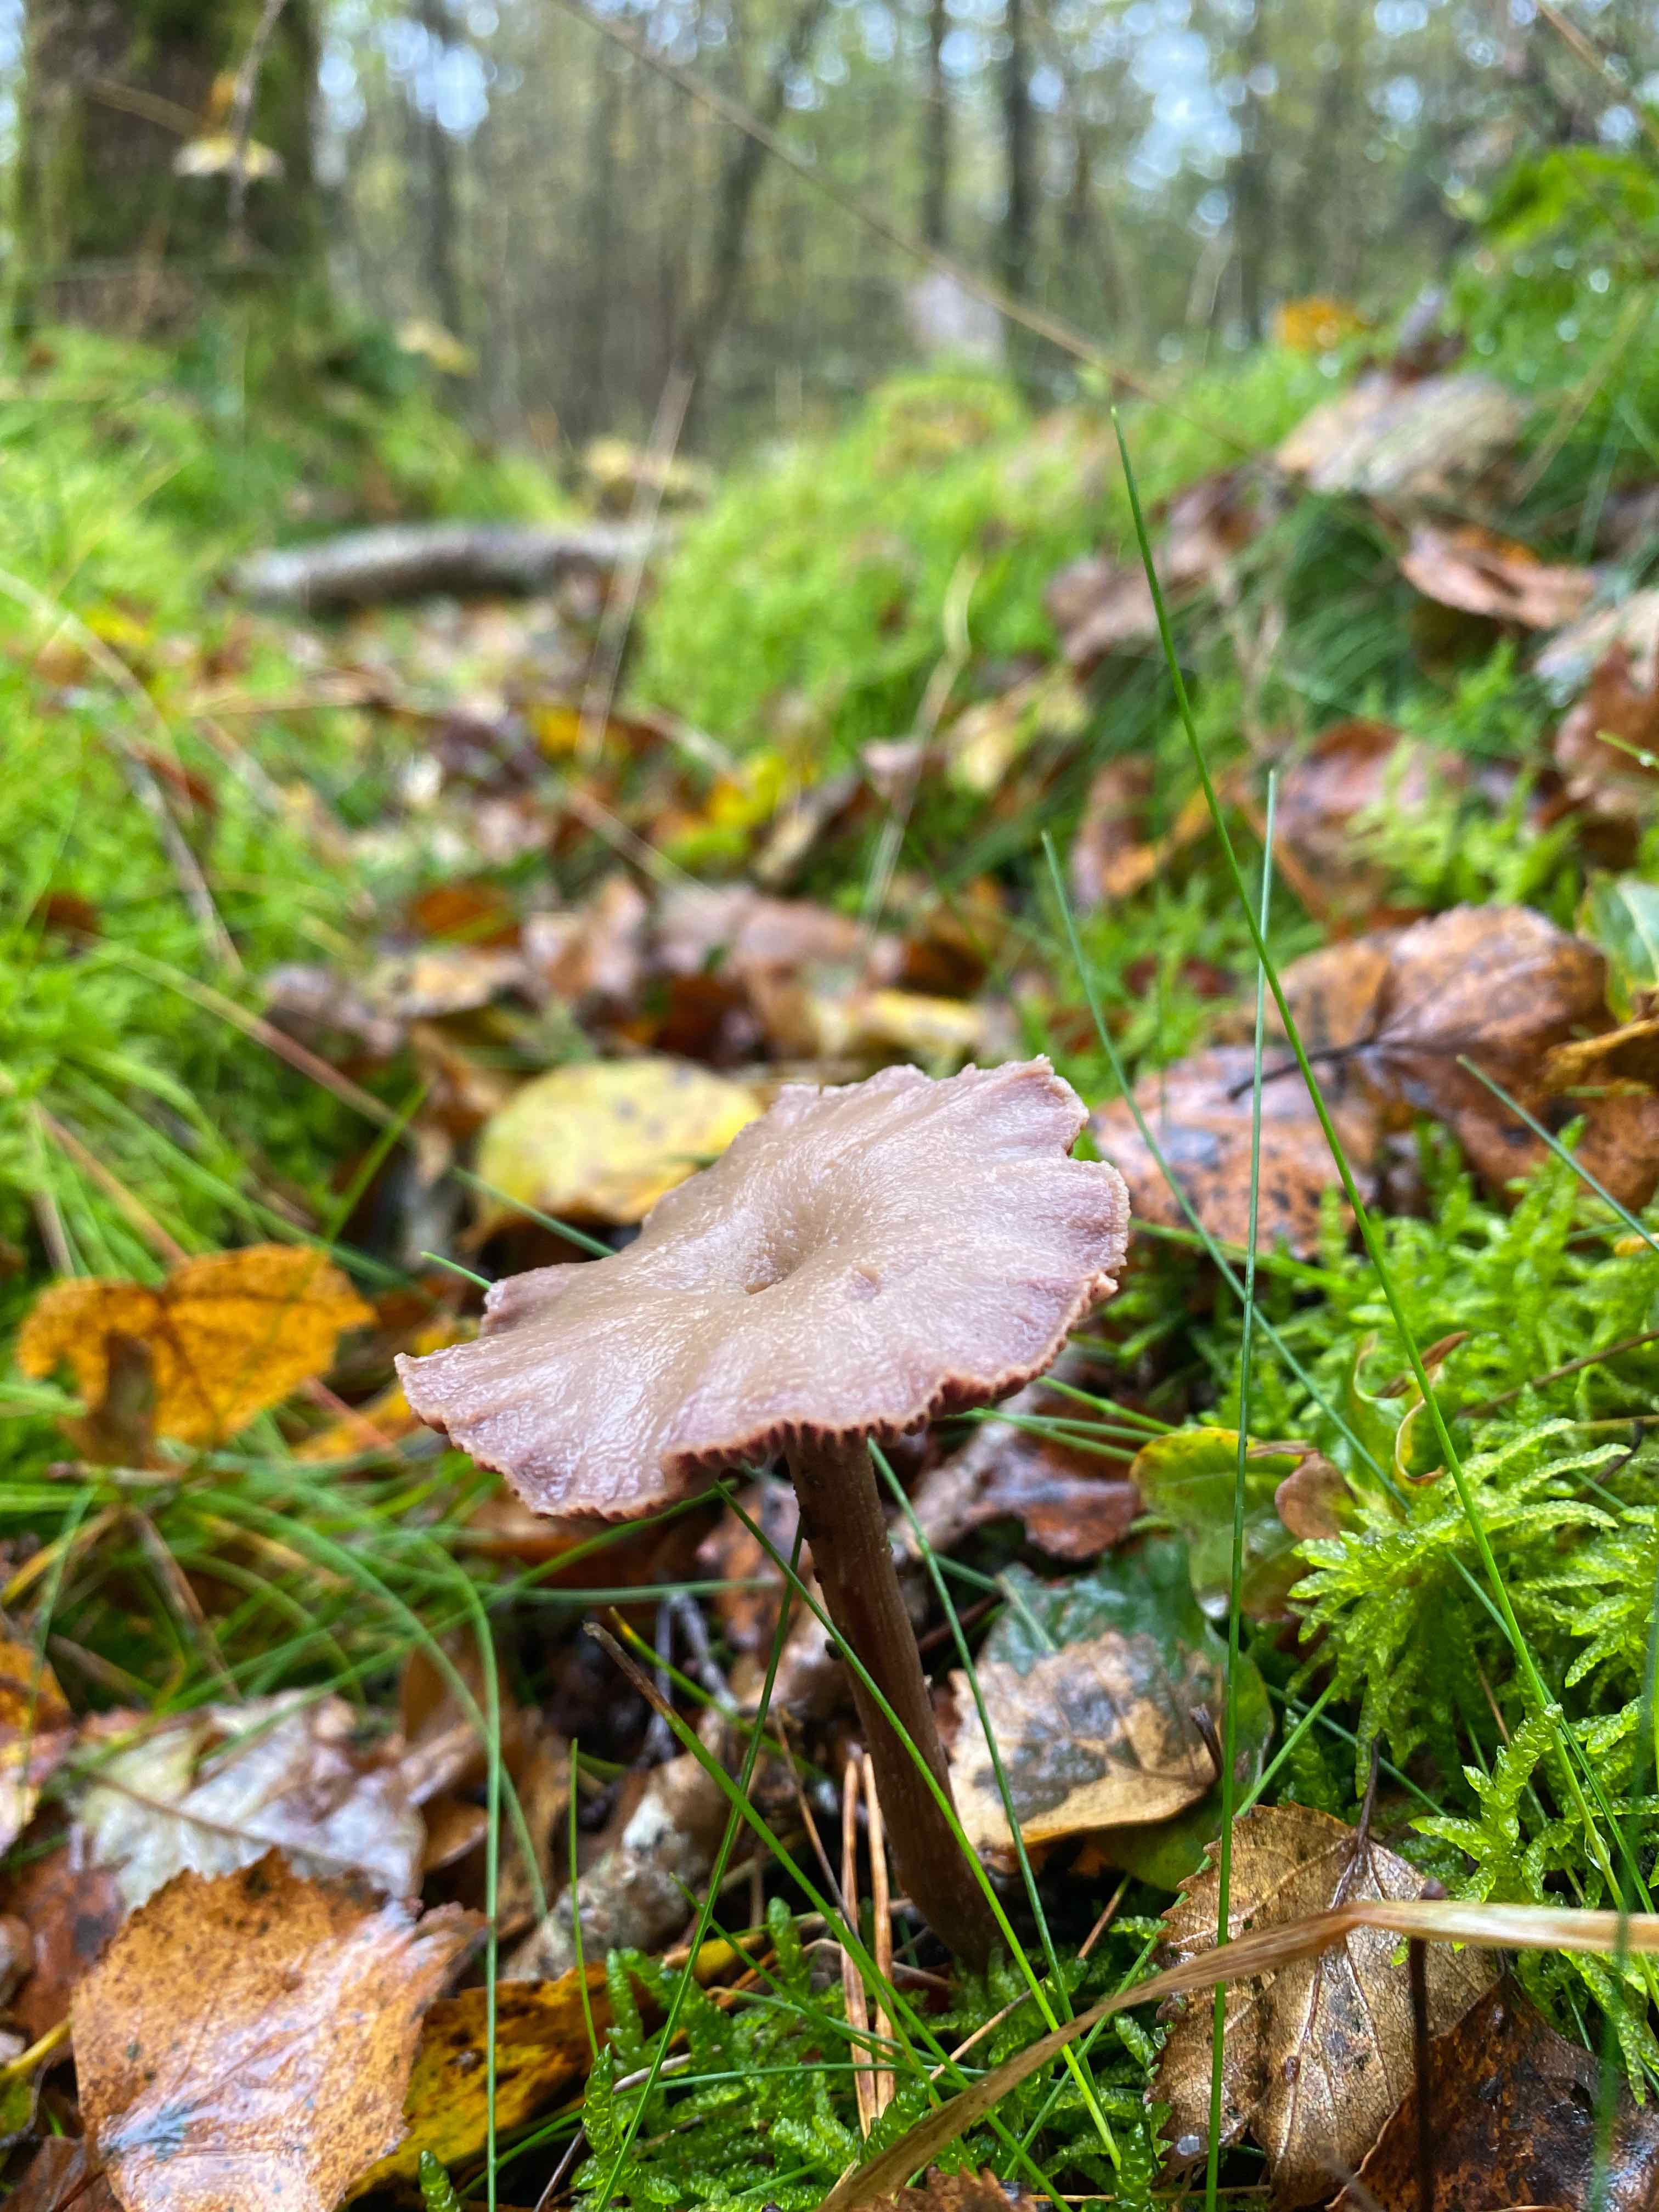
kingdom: Fungi
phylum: Basidiomycota
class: Agaricomycetes
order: Agaricales
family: Hydnangiaceae
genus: Laccaria
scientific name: Laccaria amethystina
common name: violet ametysthat
